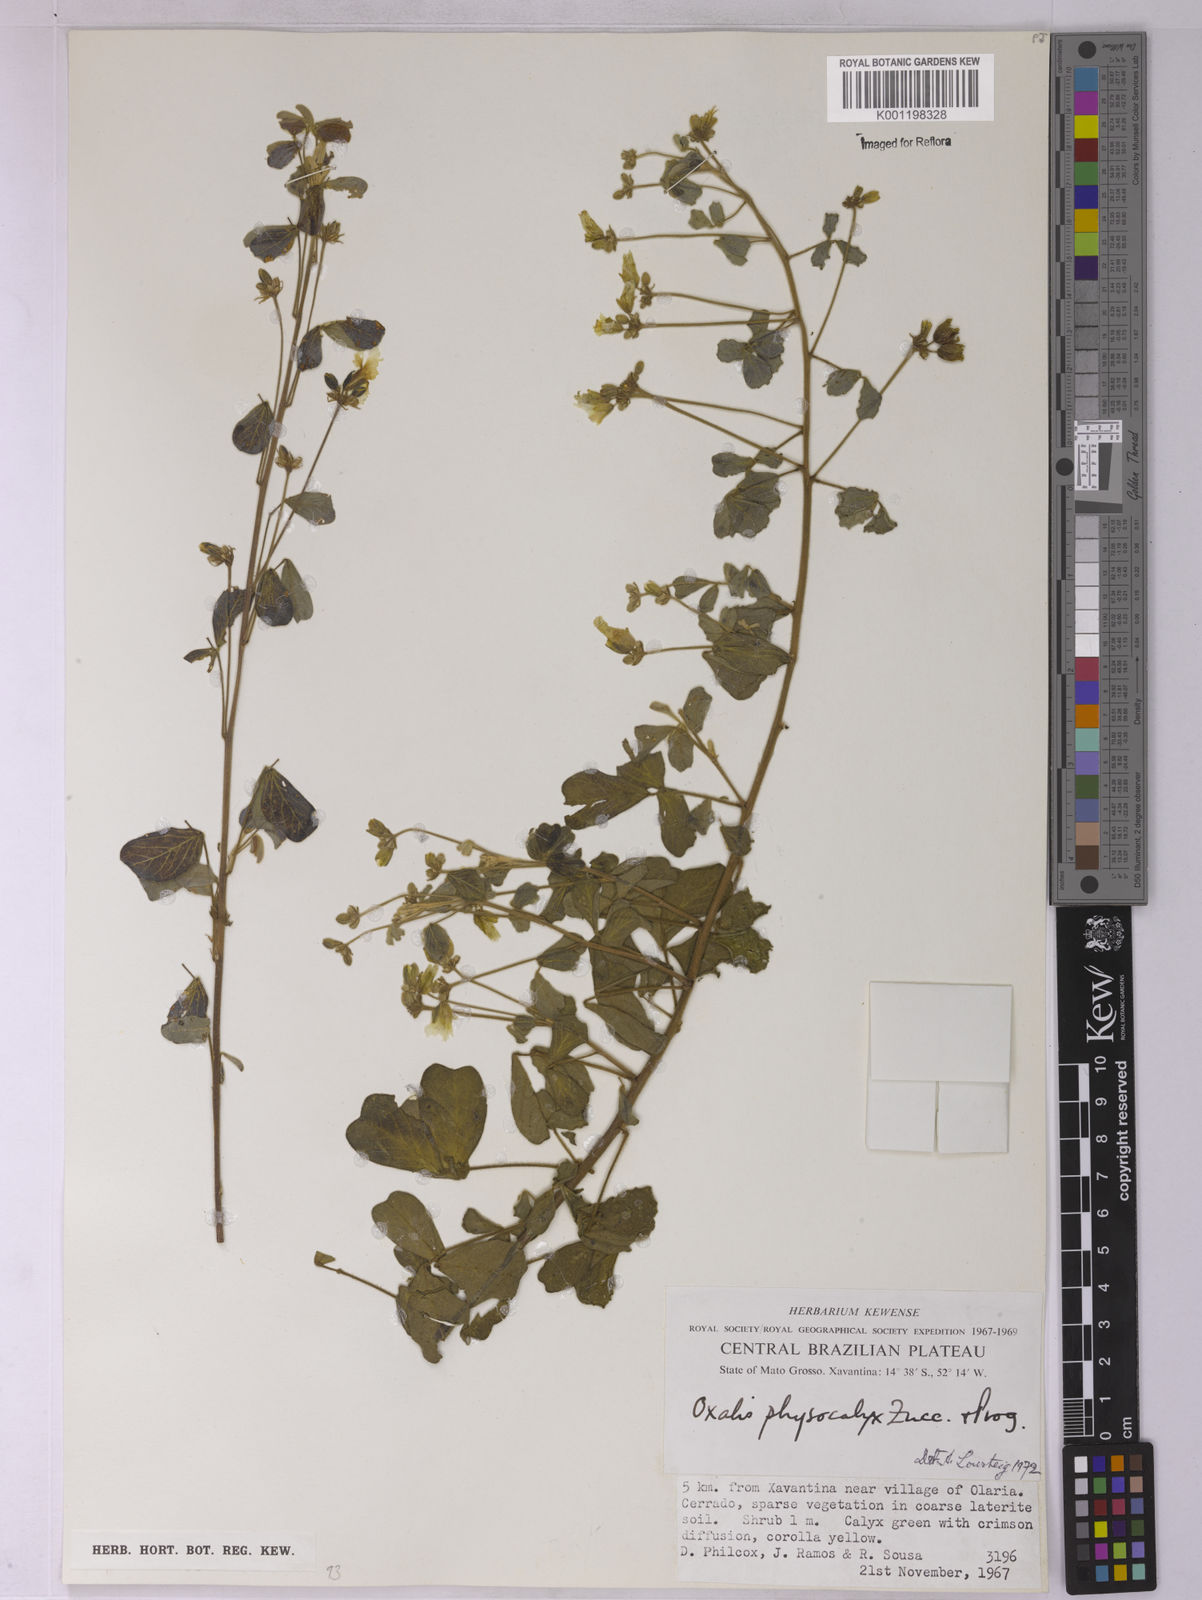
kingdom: Plantae
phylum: Tracheophyta
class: Magnoliopsida
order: Oxalidales
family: Oxalidaceae
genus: Oxalis
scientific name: Oxalis physocalyx
